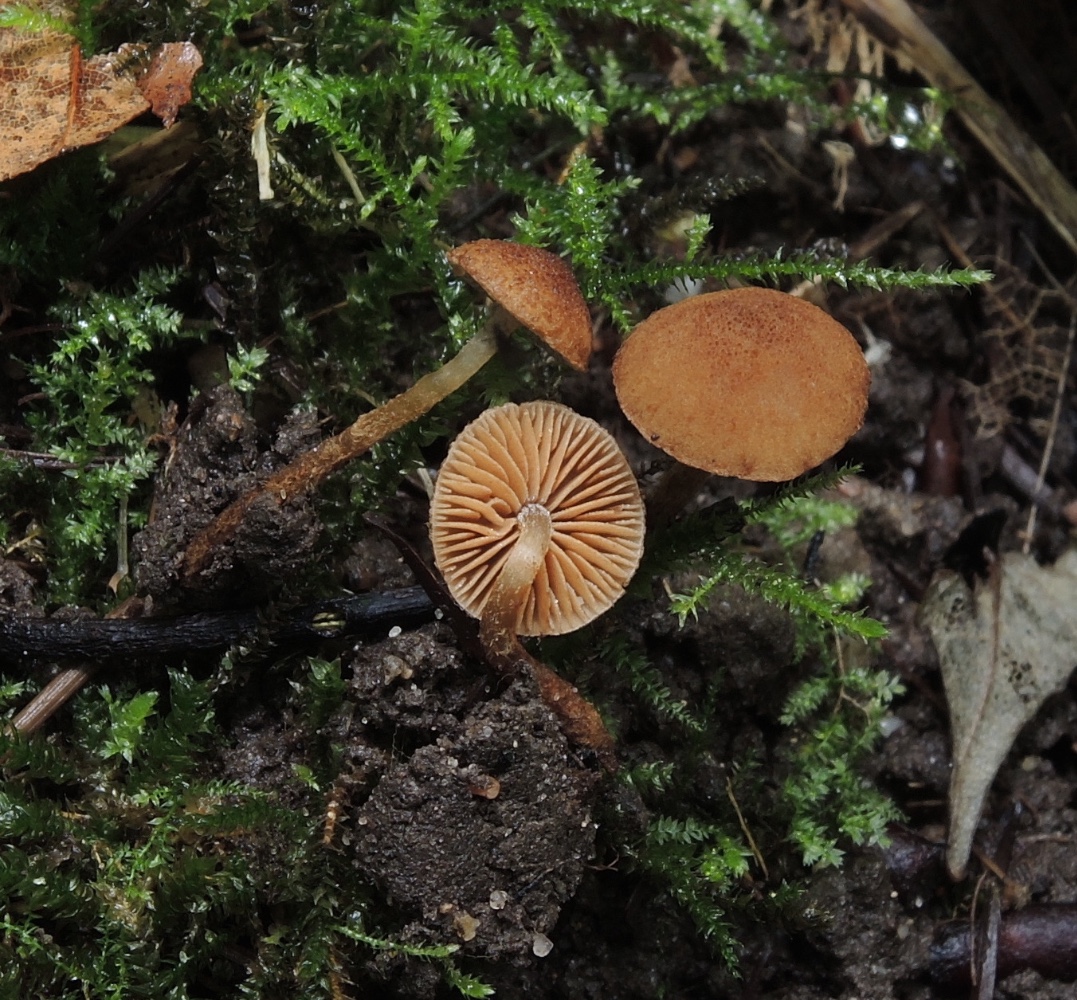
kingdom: Fungi
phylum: Basidiomycota
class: Agaricomycetes
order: Agaricales
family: Tubariaceae
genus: Flammulaster
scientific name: Flammulaster granulosus
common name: gulbrun grynskælhat
